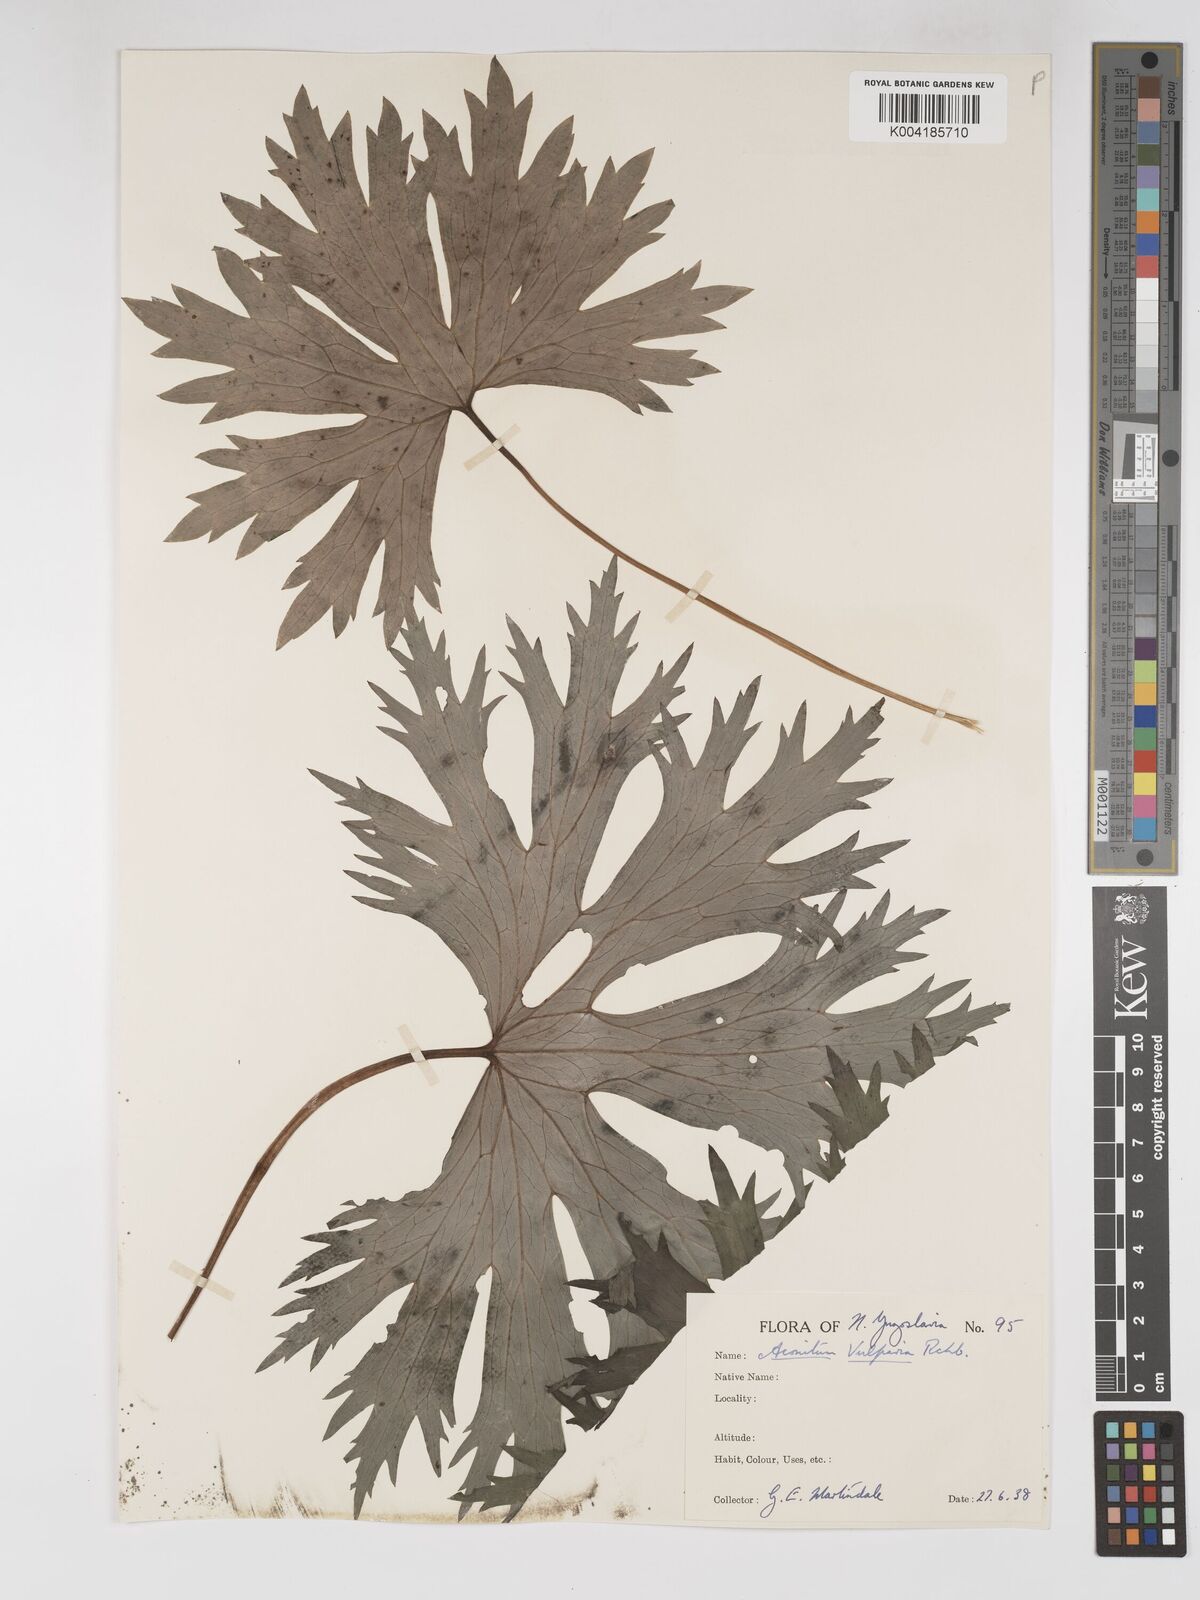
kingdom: Plantae
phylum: Tracheophyta
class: Magnoliopsida
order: Ranunculales
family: Ranunculaceae
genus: Aconitum
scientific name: Aconitum lycoctonum
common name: Wolf's-bane
